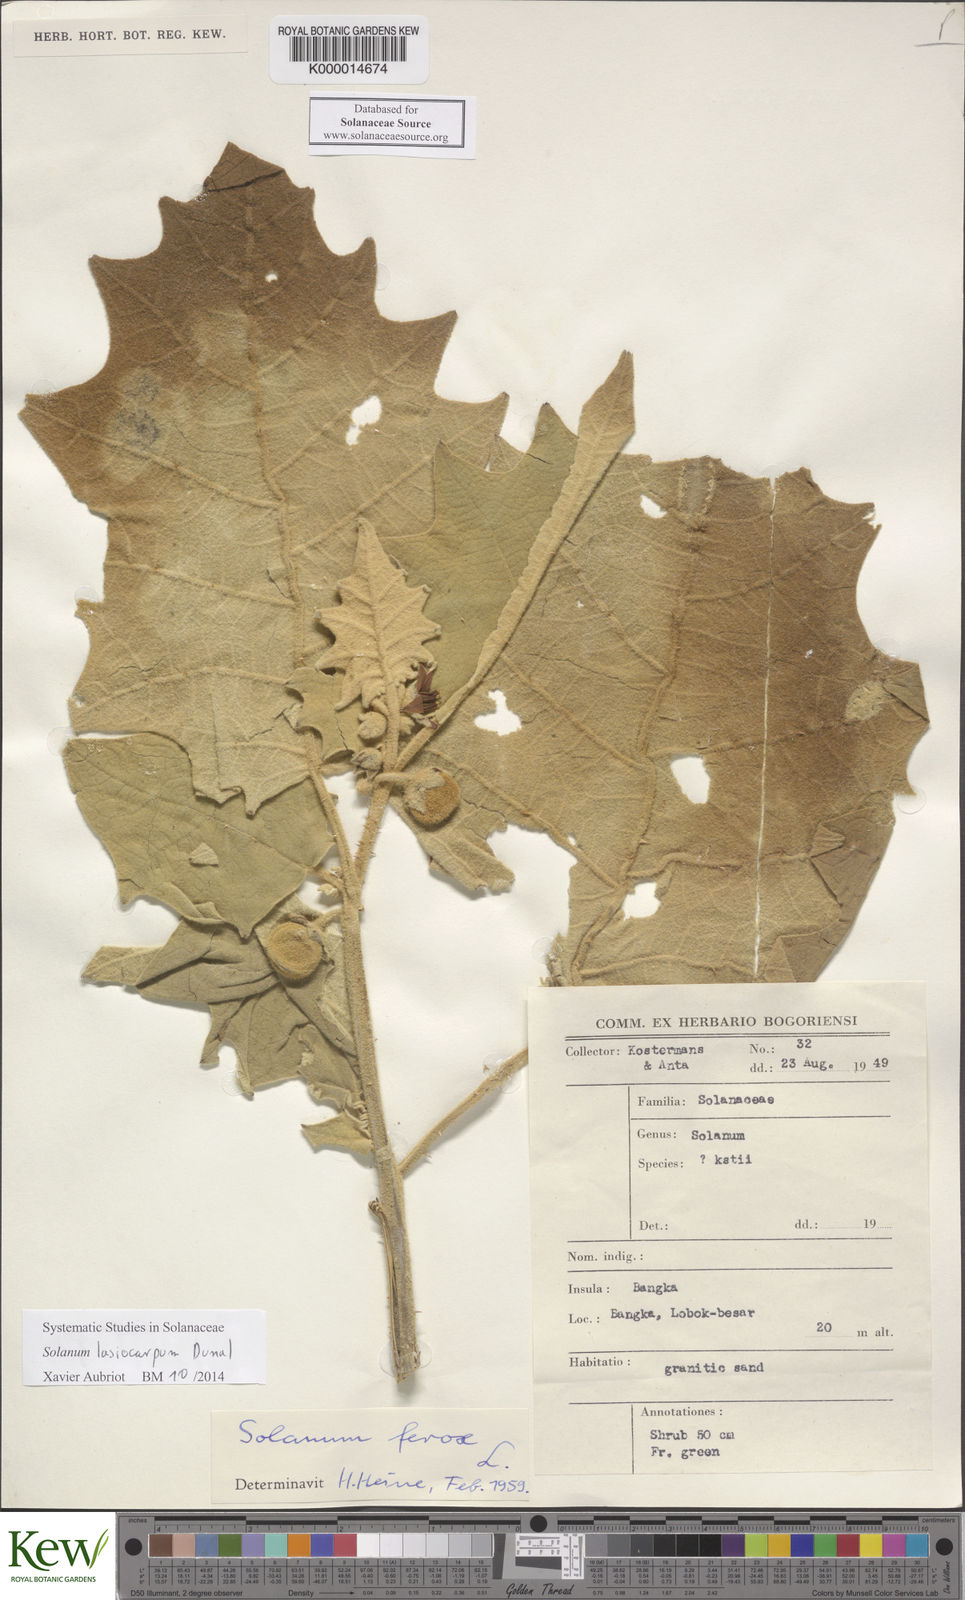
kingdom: Plantae
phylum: Tracheophyta
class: Magnoliopsida
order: Solanales
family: Solanaceae
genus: Solanum
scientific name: Solanum lasiocarpum
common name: Indian nightshade
